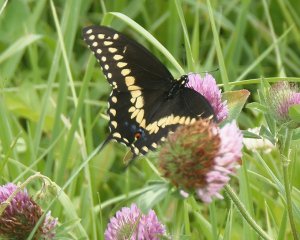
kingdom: Animalia
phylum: Arthropoda
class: Insecta
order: Lepidoptera
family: Papilionidae
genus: Papilio
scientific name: Papilio polyxenes
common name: Black Swallowtail
